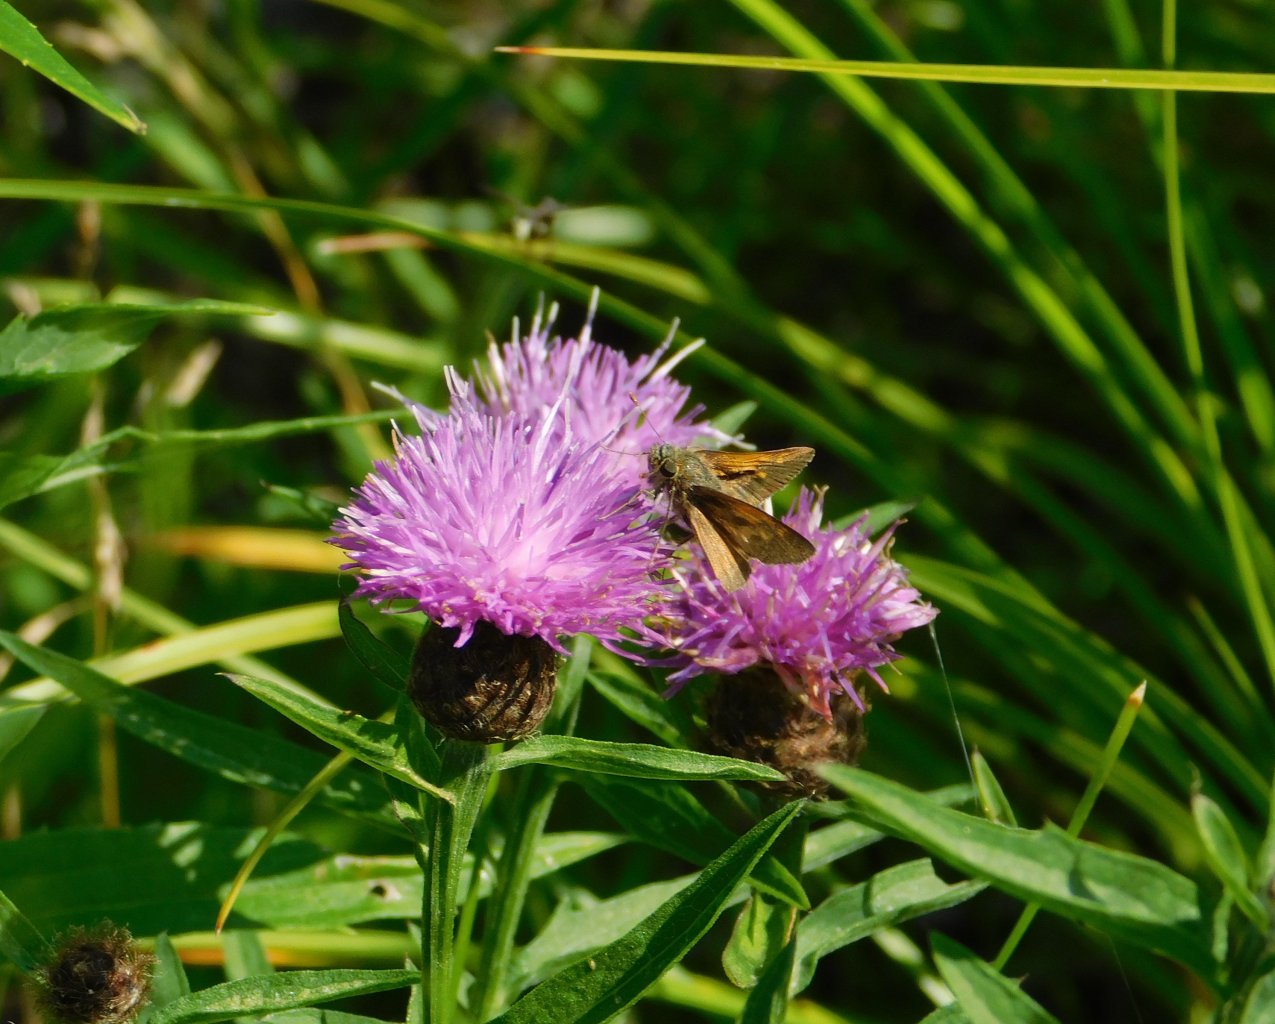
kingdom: Animalia
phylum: Arthropoda
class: Insecta
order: Lepidoptera
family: Hesperiidae
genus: Polites
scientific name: Polites themistocles
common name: Tawny-edged Skipper
